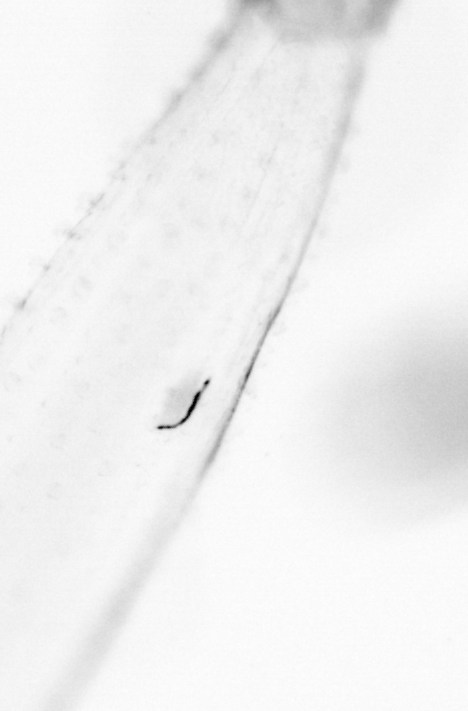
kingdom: Animalia
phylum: Chaetognatha
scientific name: Chaetognatha
